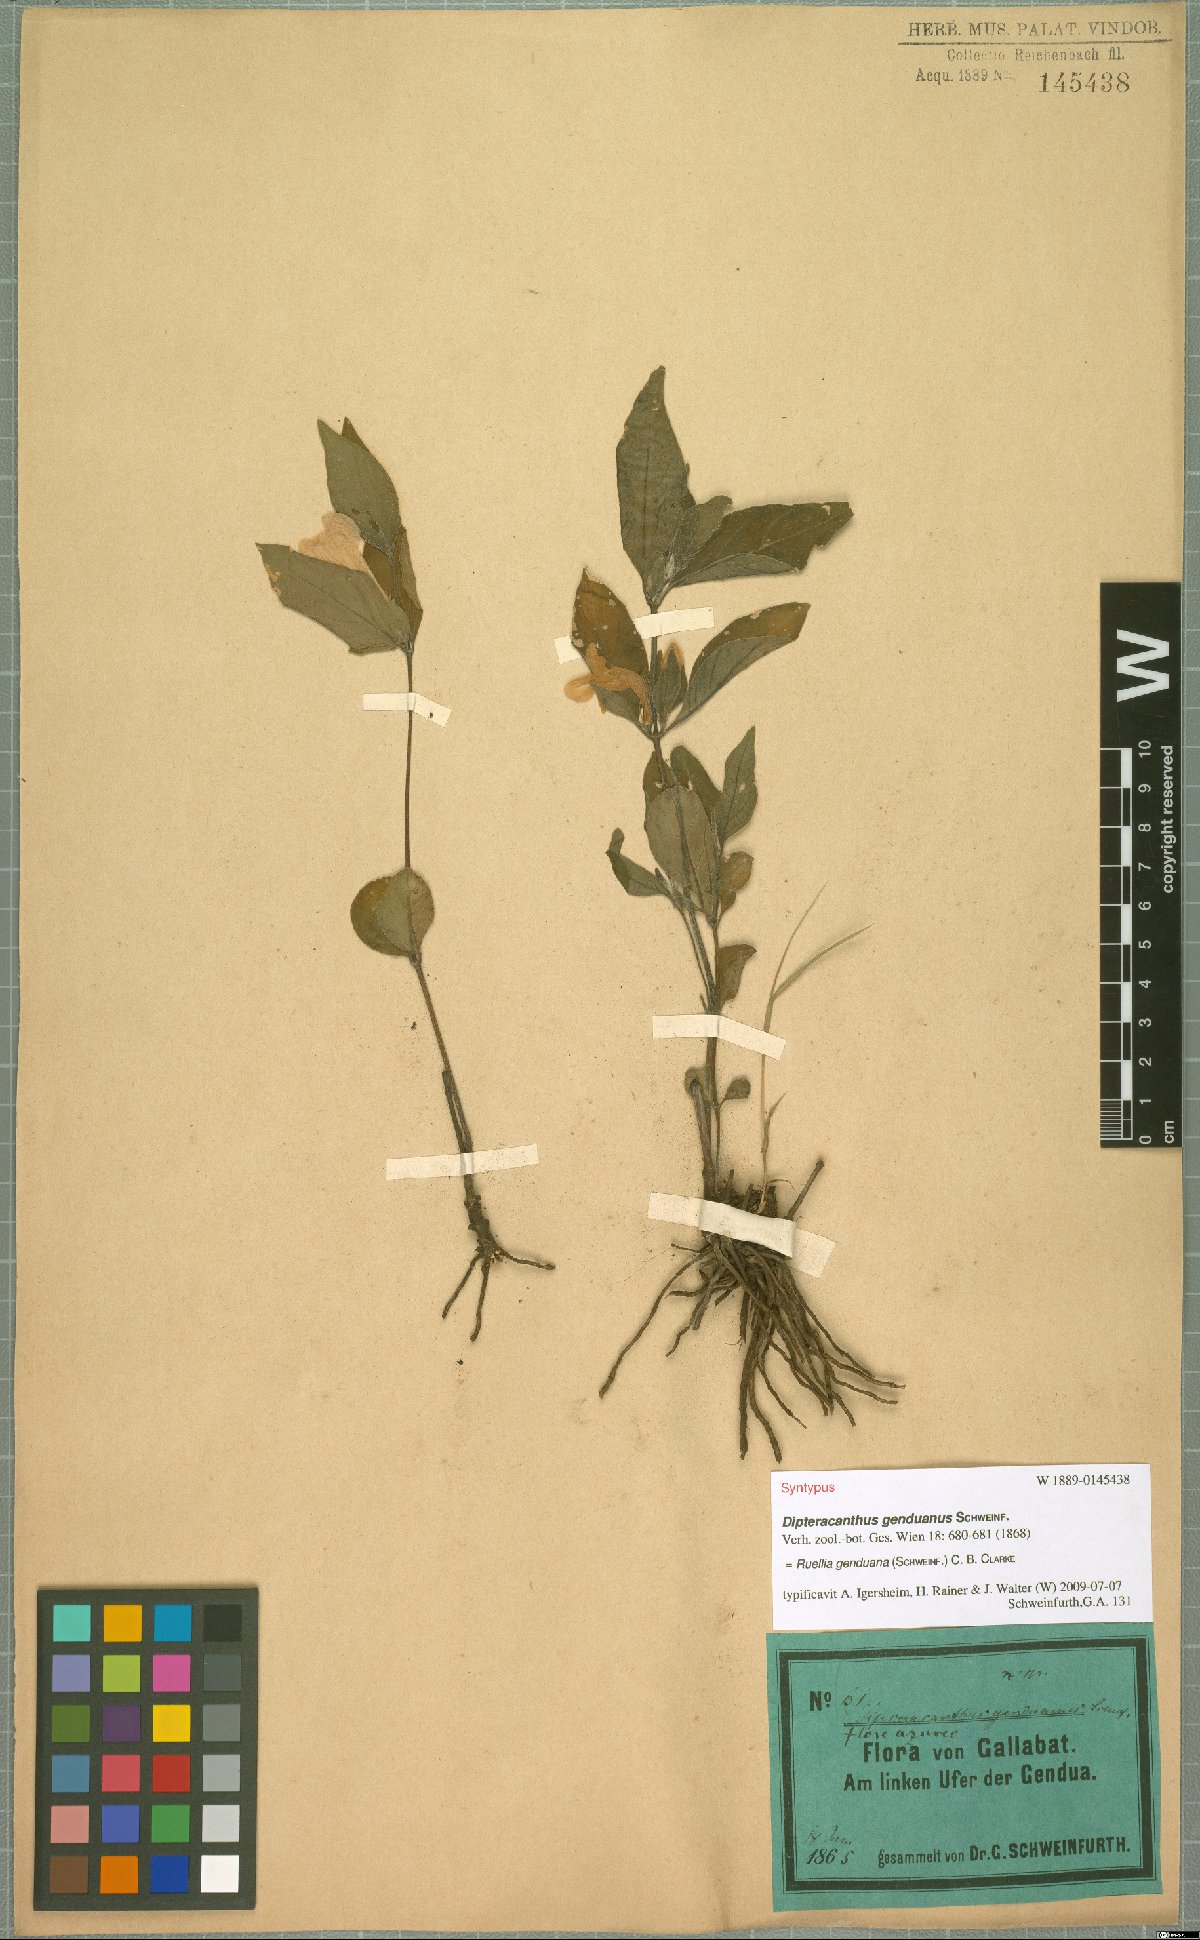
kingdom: Plantae
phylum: Tracheophyta
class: Magnoliopsida
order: Lamiales
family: Acanthaceae
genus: Ruellia
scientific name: Ruellia prostrata
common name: Prostrate wild petunia
